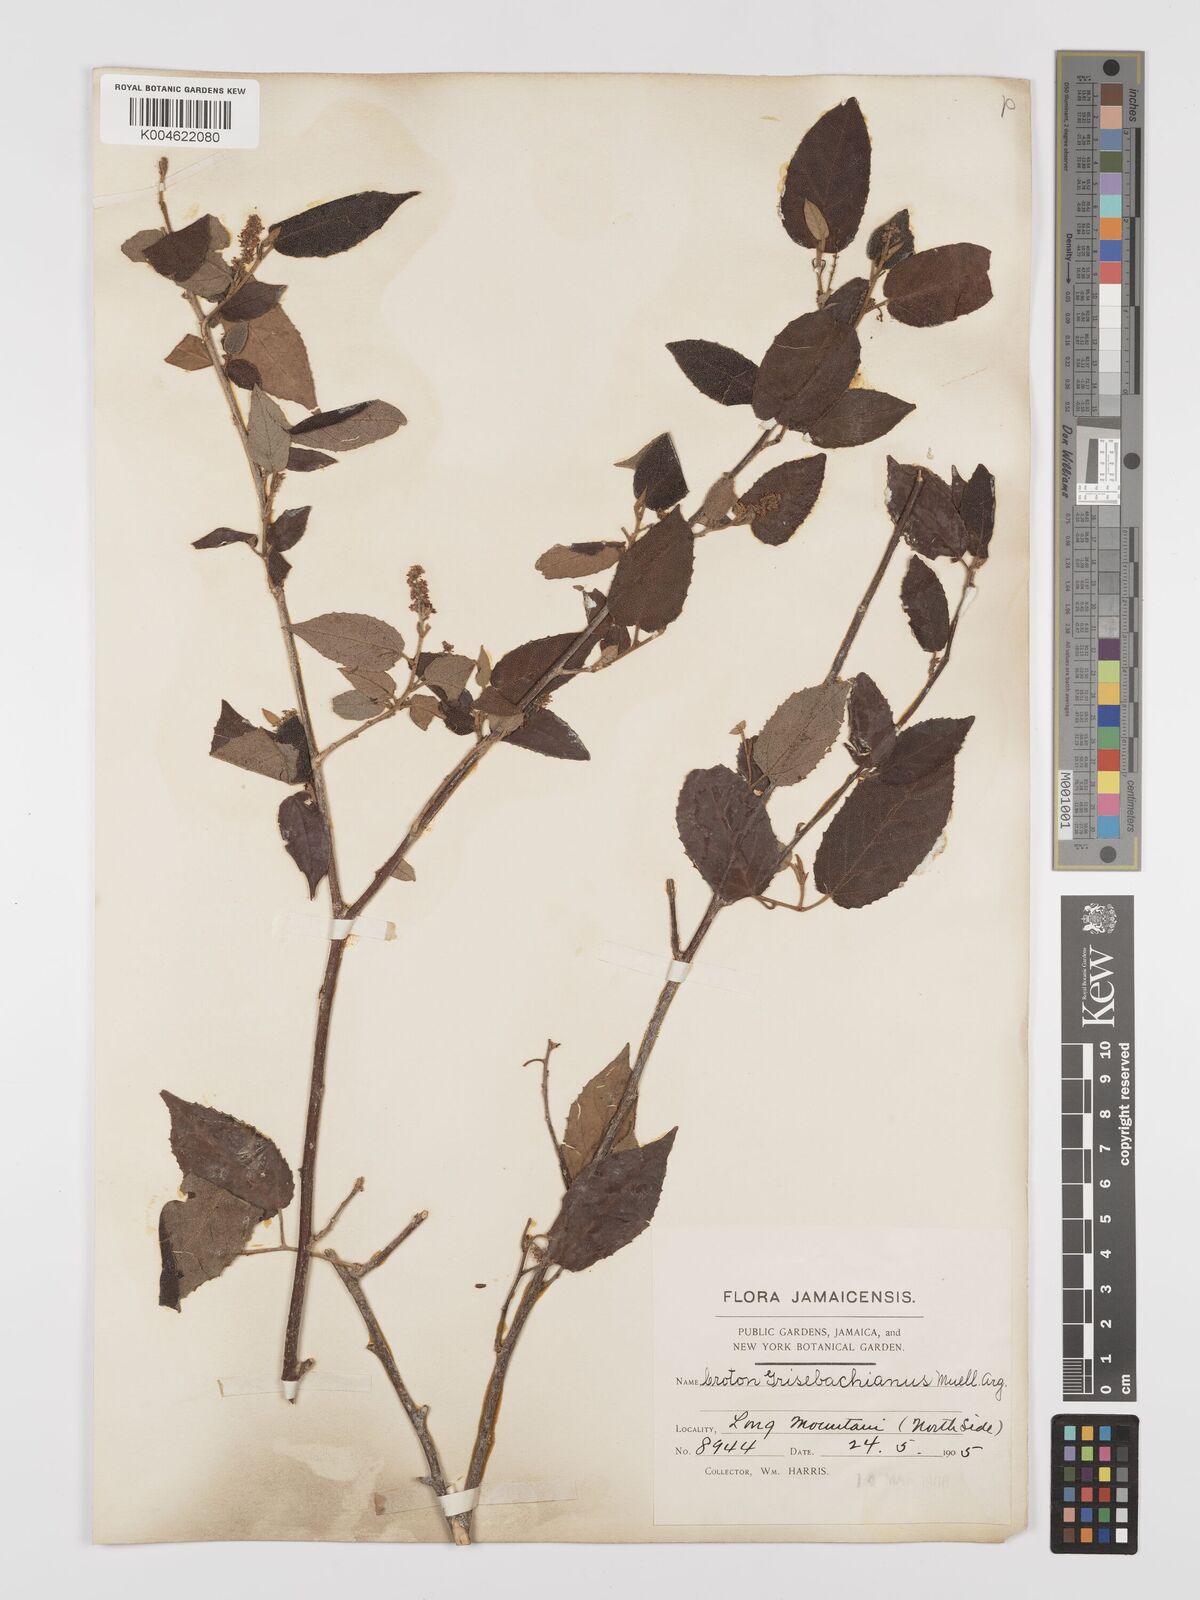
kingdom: Plantae
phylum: Tracheophyta
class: Magnoliopsida
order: Malpighiales
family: Euphorbiaceae
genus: Croton
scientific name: Croton grisebachianus
